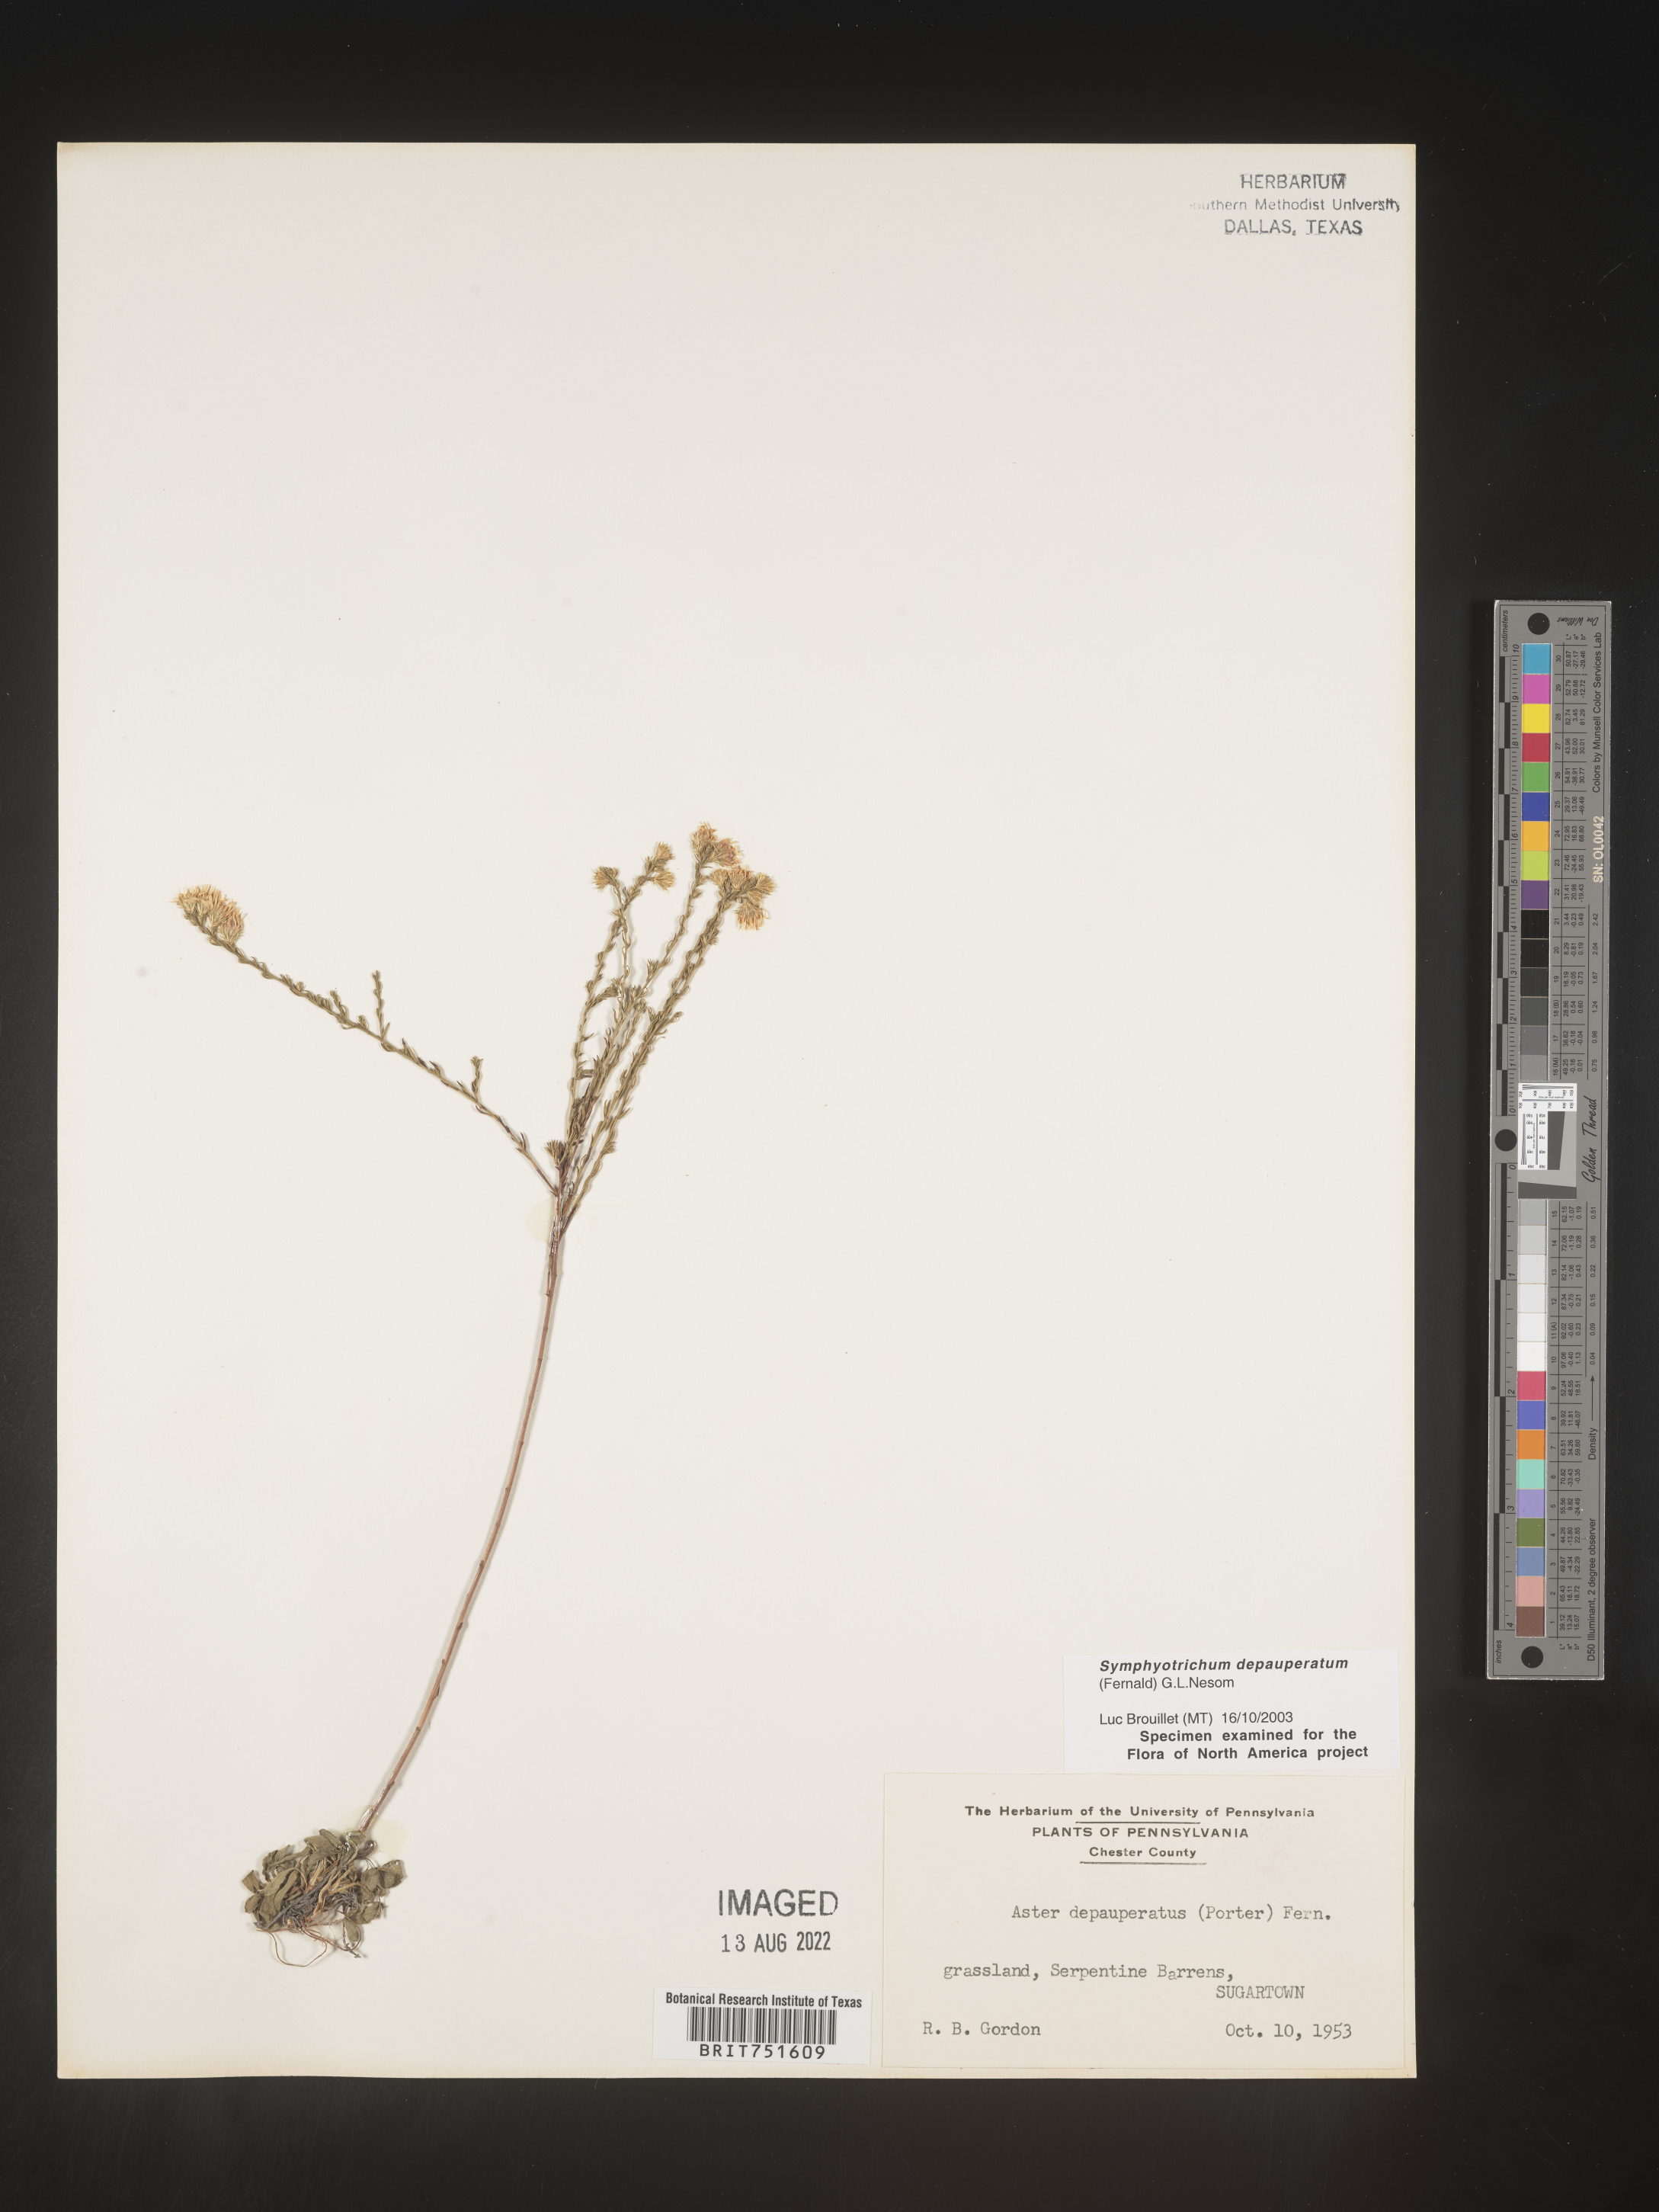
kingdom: Plantae
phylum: Tracheophyta
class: Magnoliopsida
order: Asterales
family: Asteraceae
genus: Symphyotrichum
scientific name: Symphyotrichum depauperatum
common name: Serpentine aster
